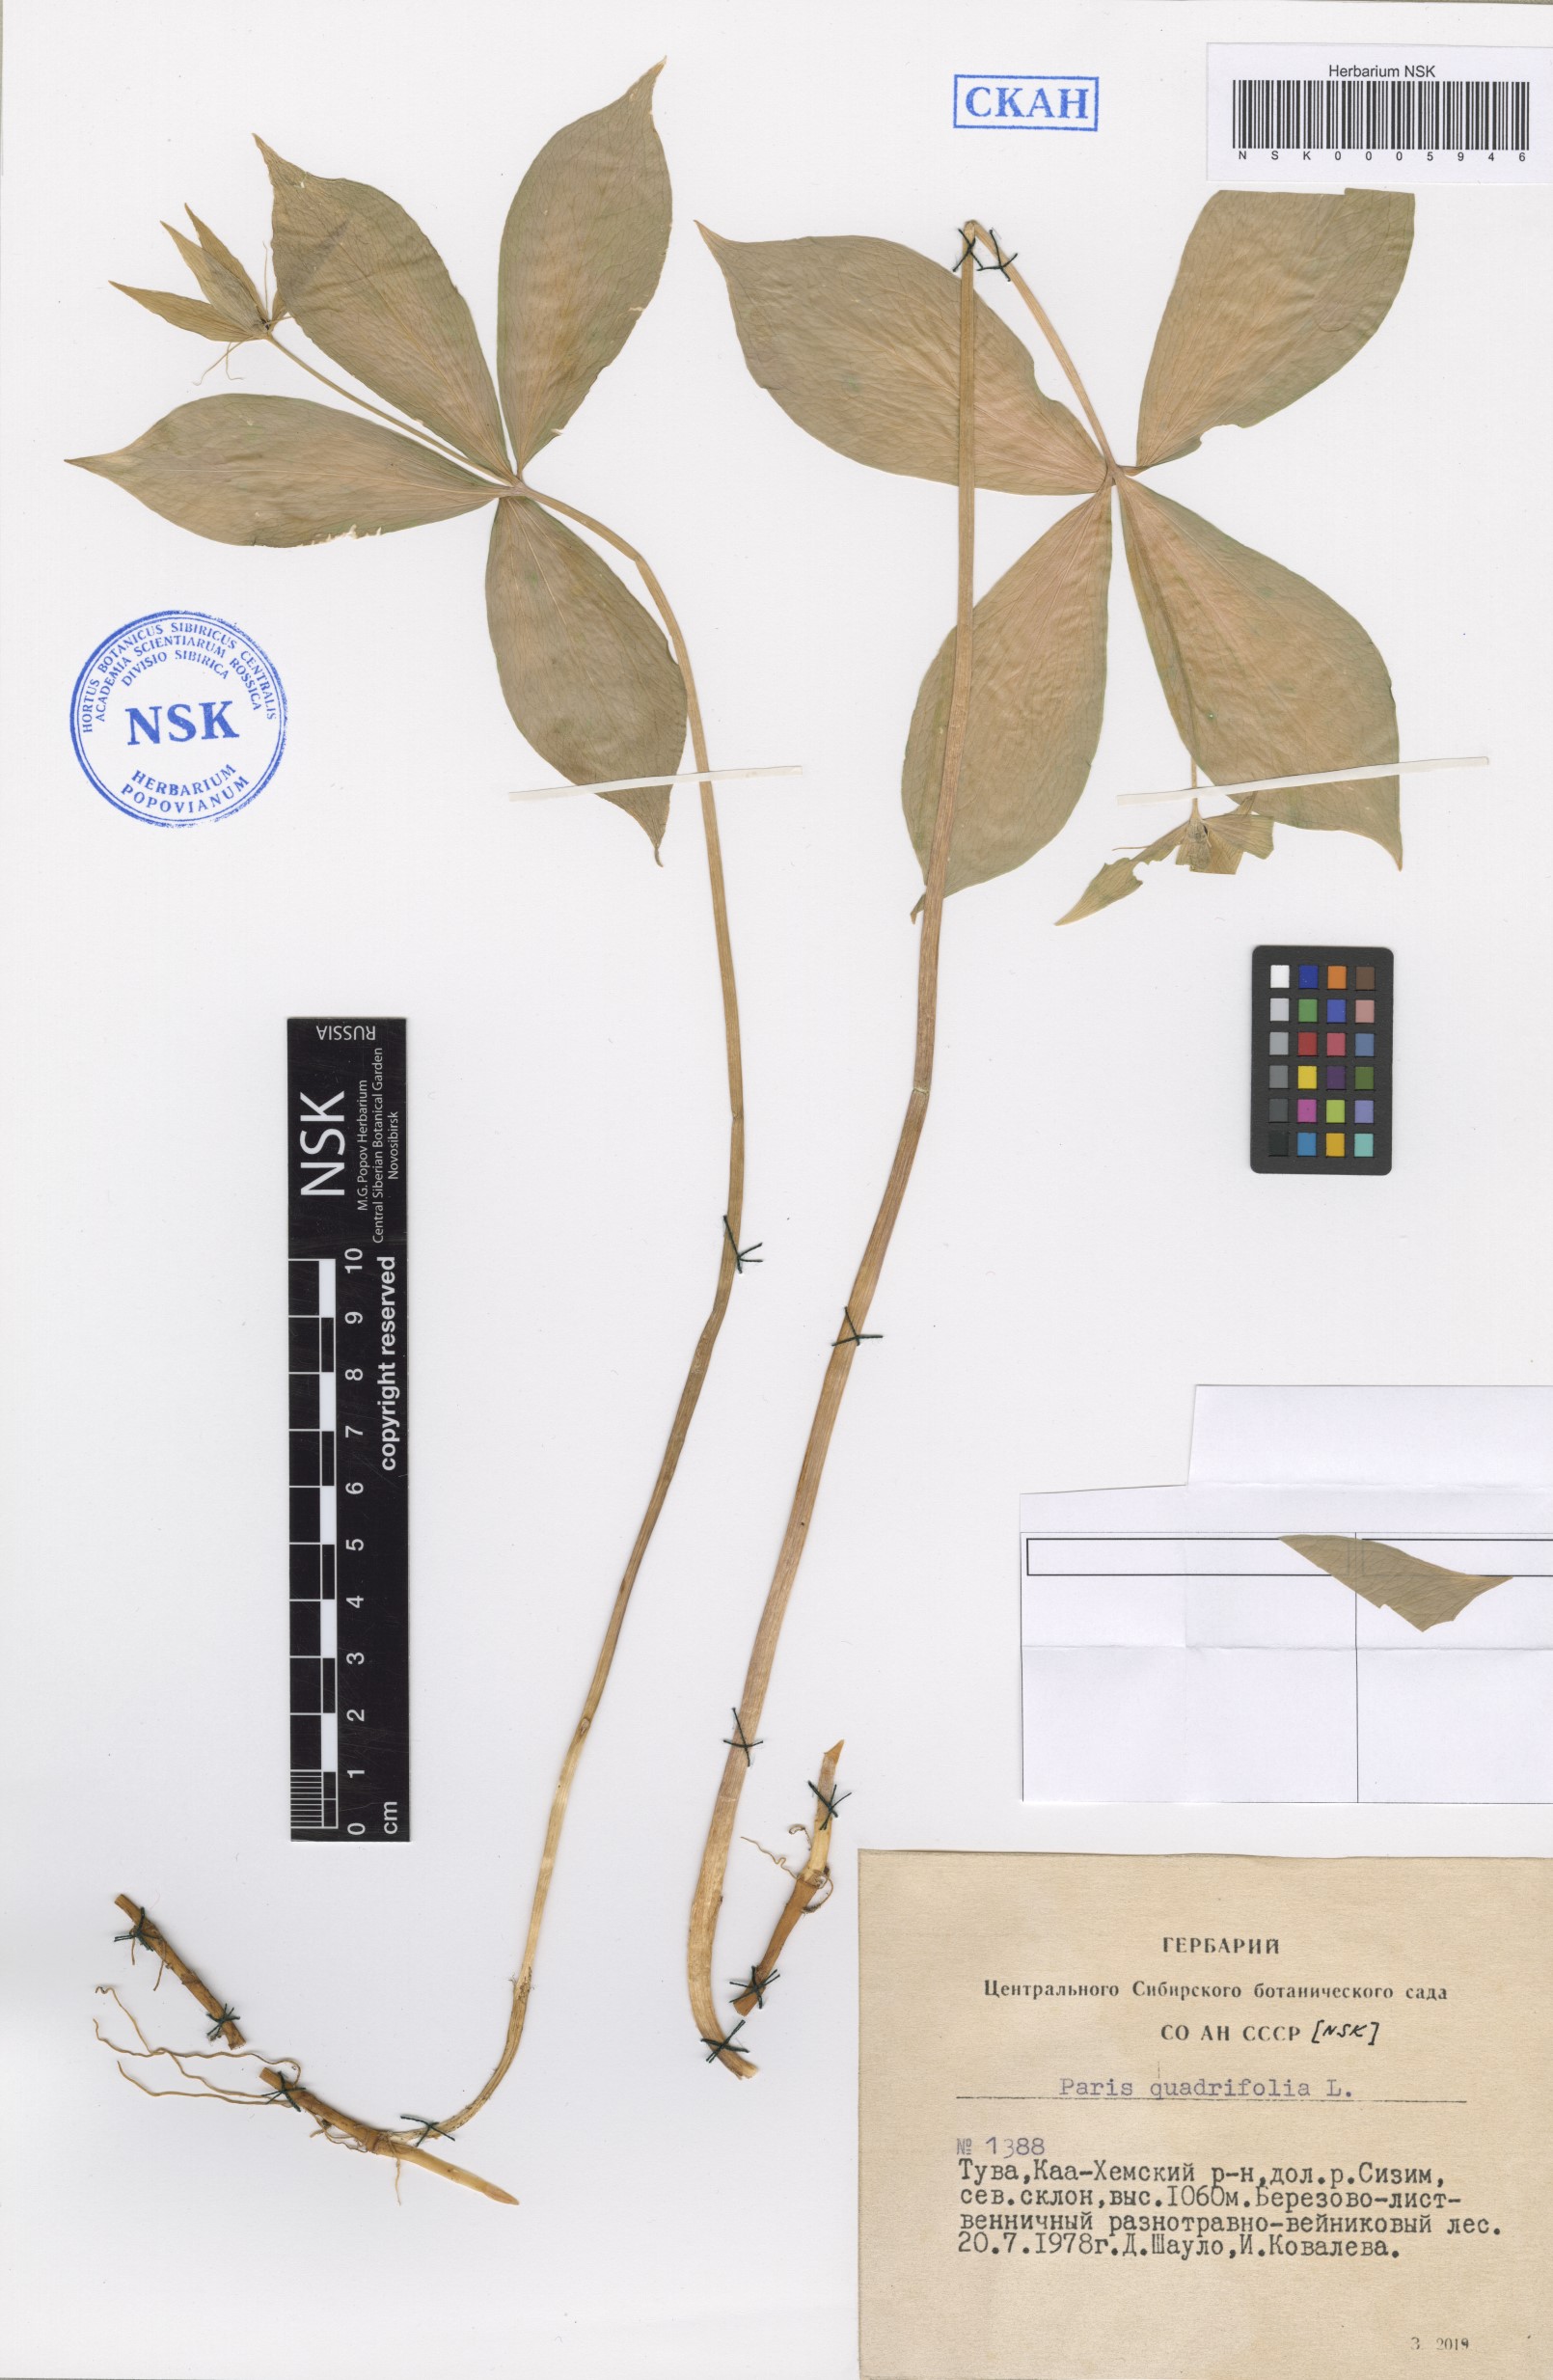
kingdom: Plantae
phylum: Tracheophyta
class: Liliopsida
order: Liliales
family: Melanthiaceae
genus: Paris
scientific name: Paris quadrifolia
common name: Herb-paris
